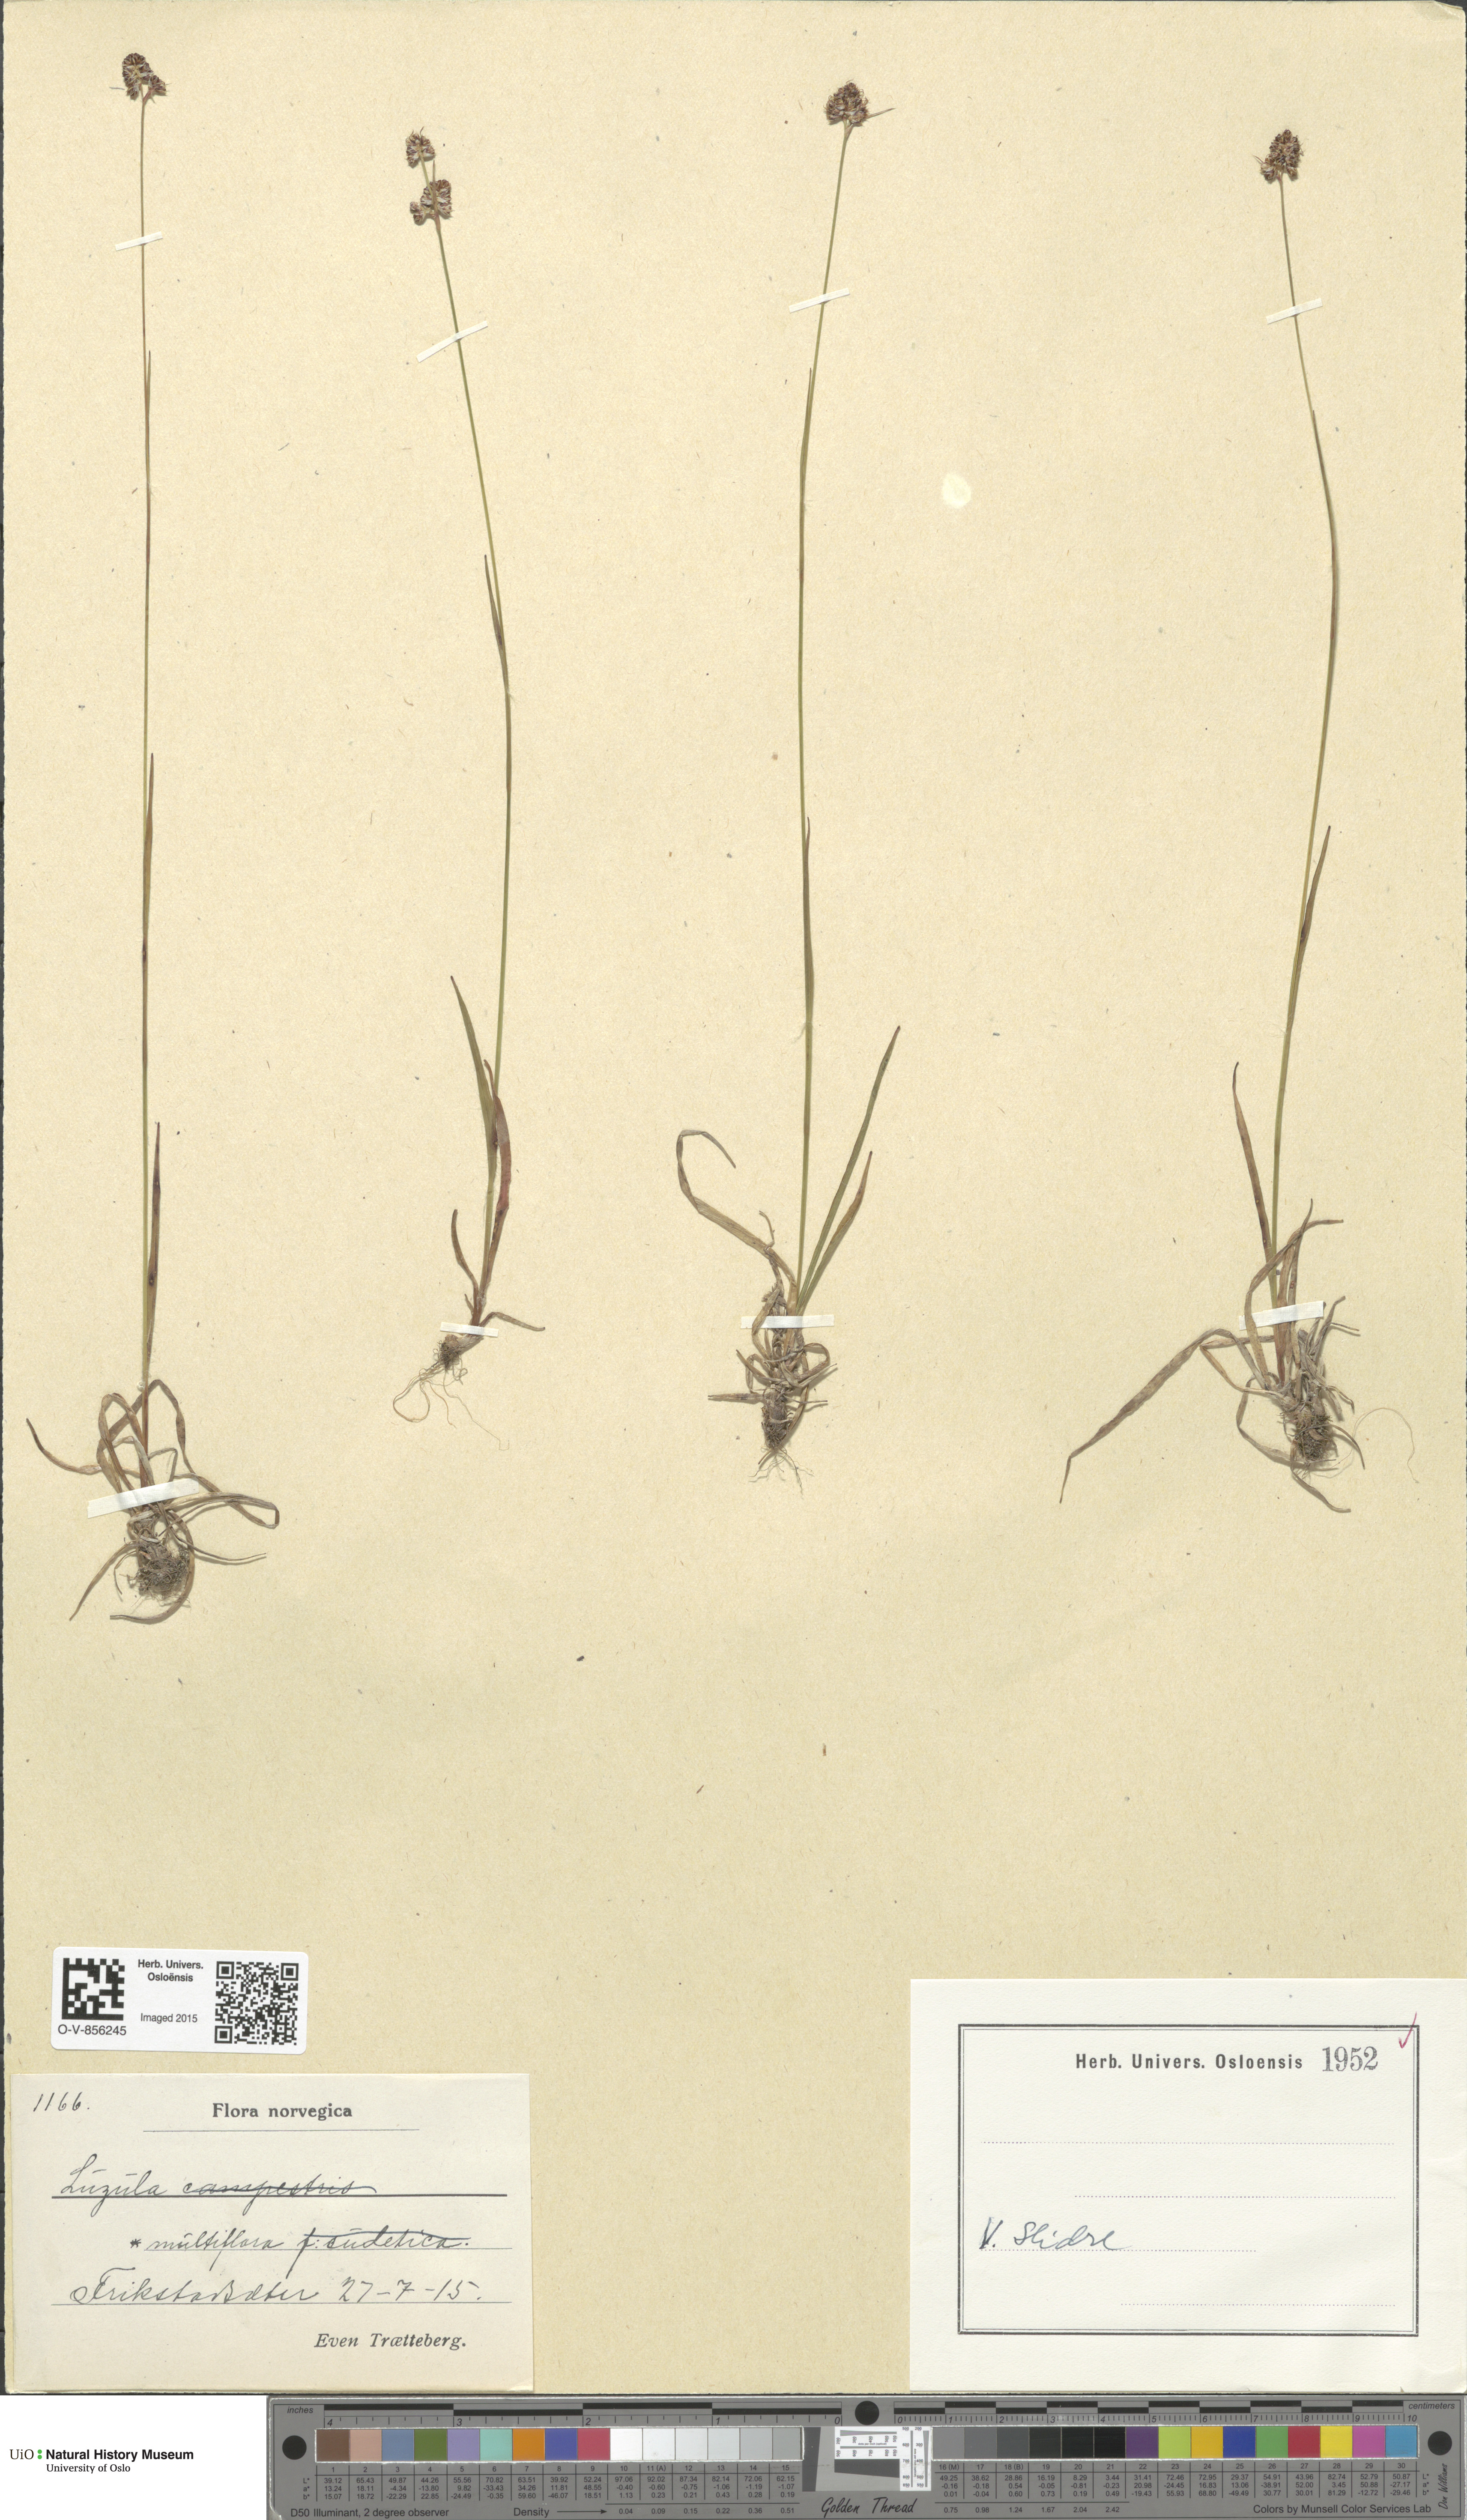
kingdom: Plantae
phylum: Tracheophyta
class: Liliopsida
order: Poales
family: Juncaceae
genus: Luzula
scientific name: Luzula multiflora
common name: Heath wood-rush
